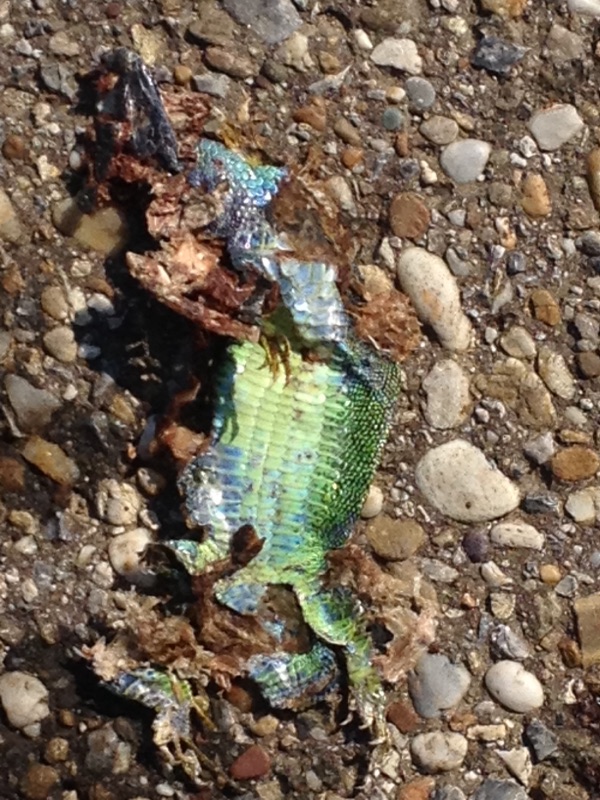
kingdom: Animalia
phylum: Chordata
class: Squamata
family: Lacertidae
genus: Lacerta
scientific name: Lacerta viridis
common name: European green lizard
